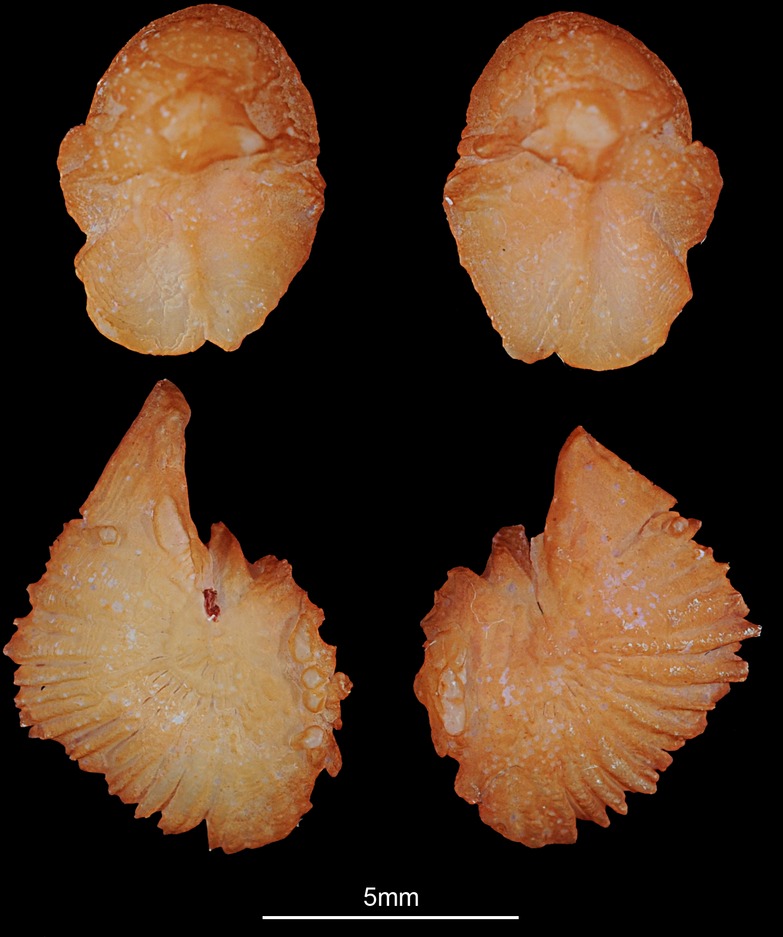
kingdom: Animalia
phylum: Chordata
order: Cypriniformes
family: Cyprinidae
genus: Squalius
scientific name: Squalius cephalus
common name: Chub
